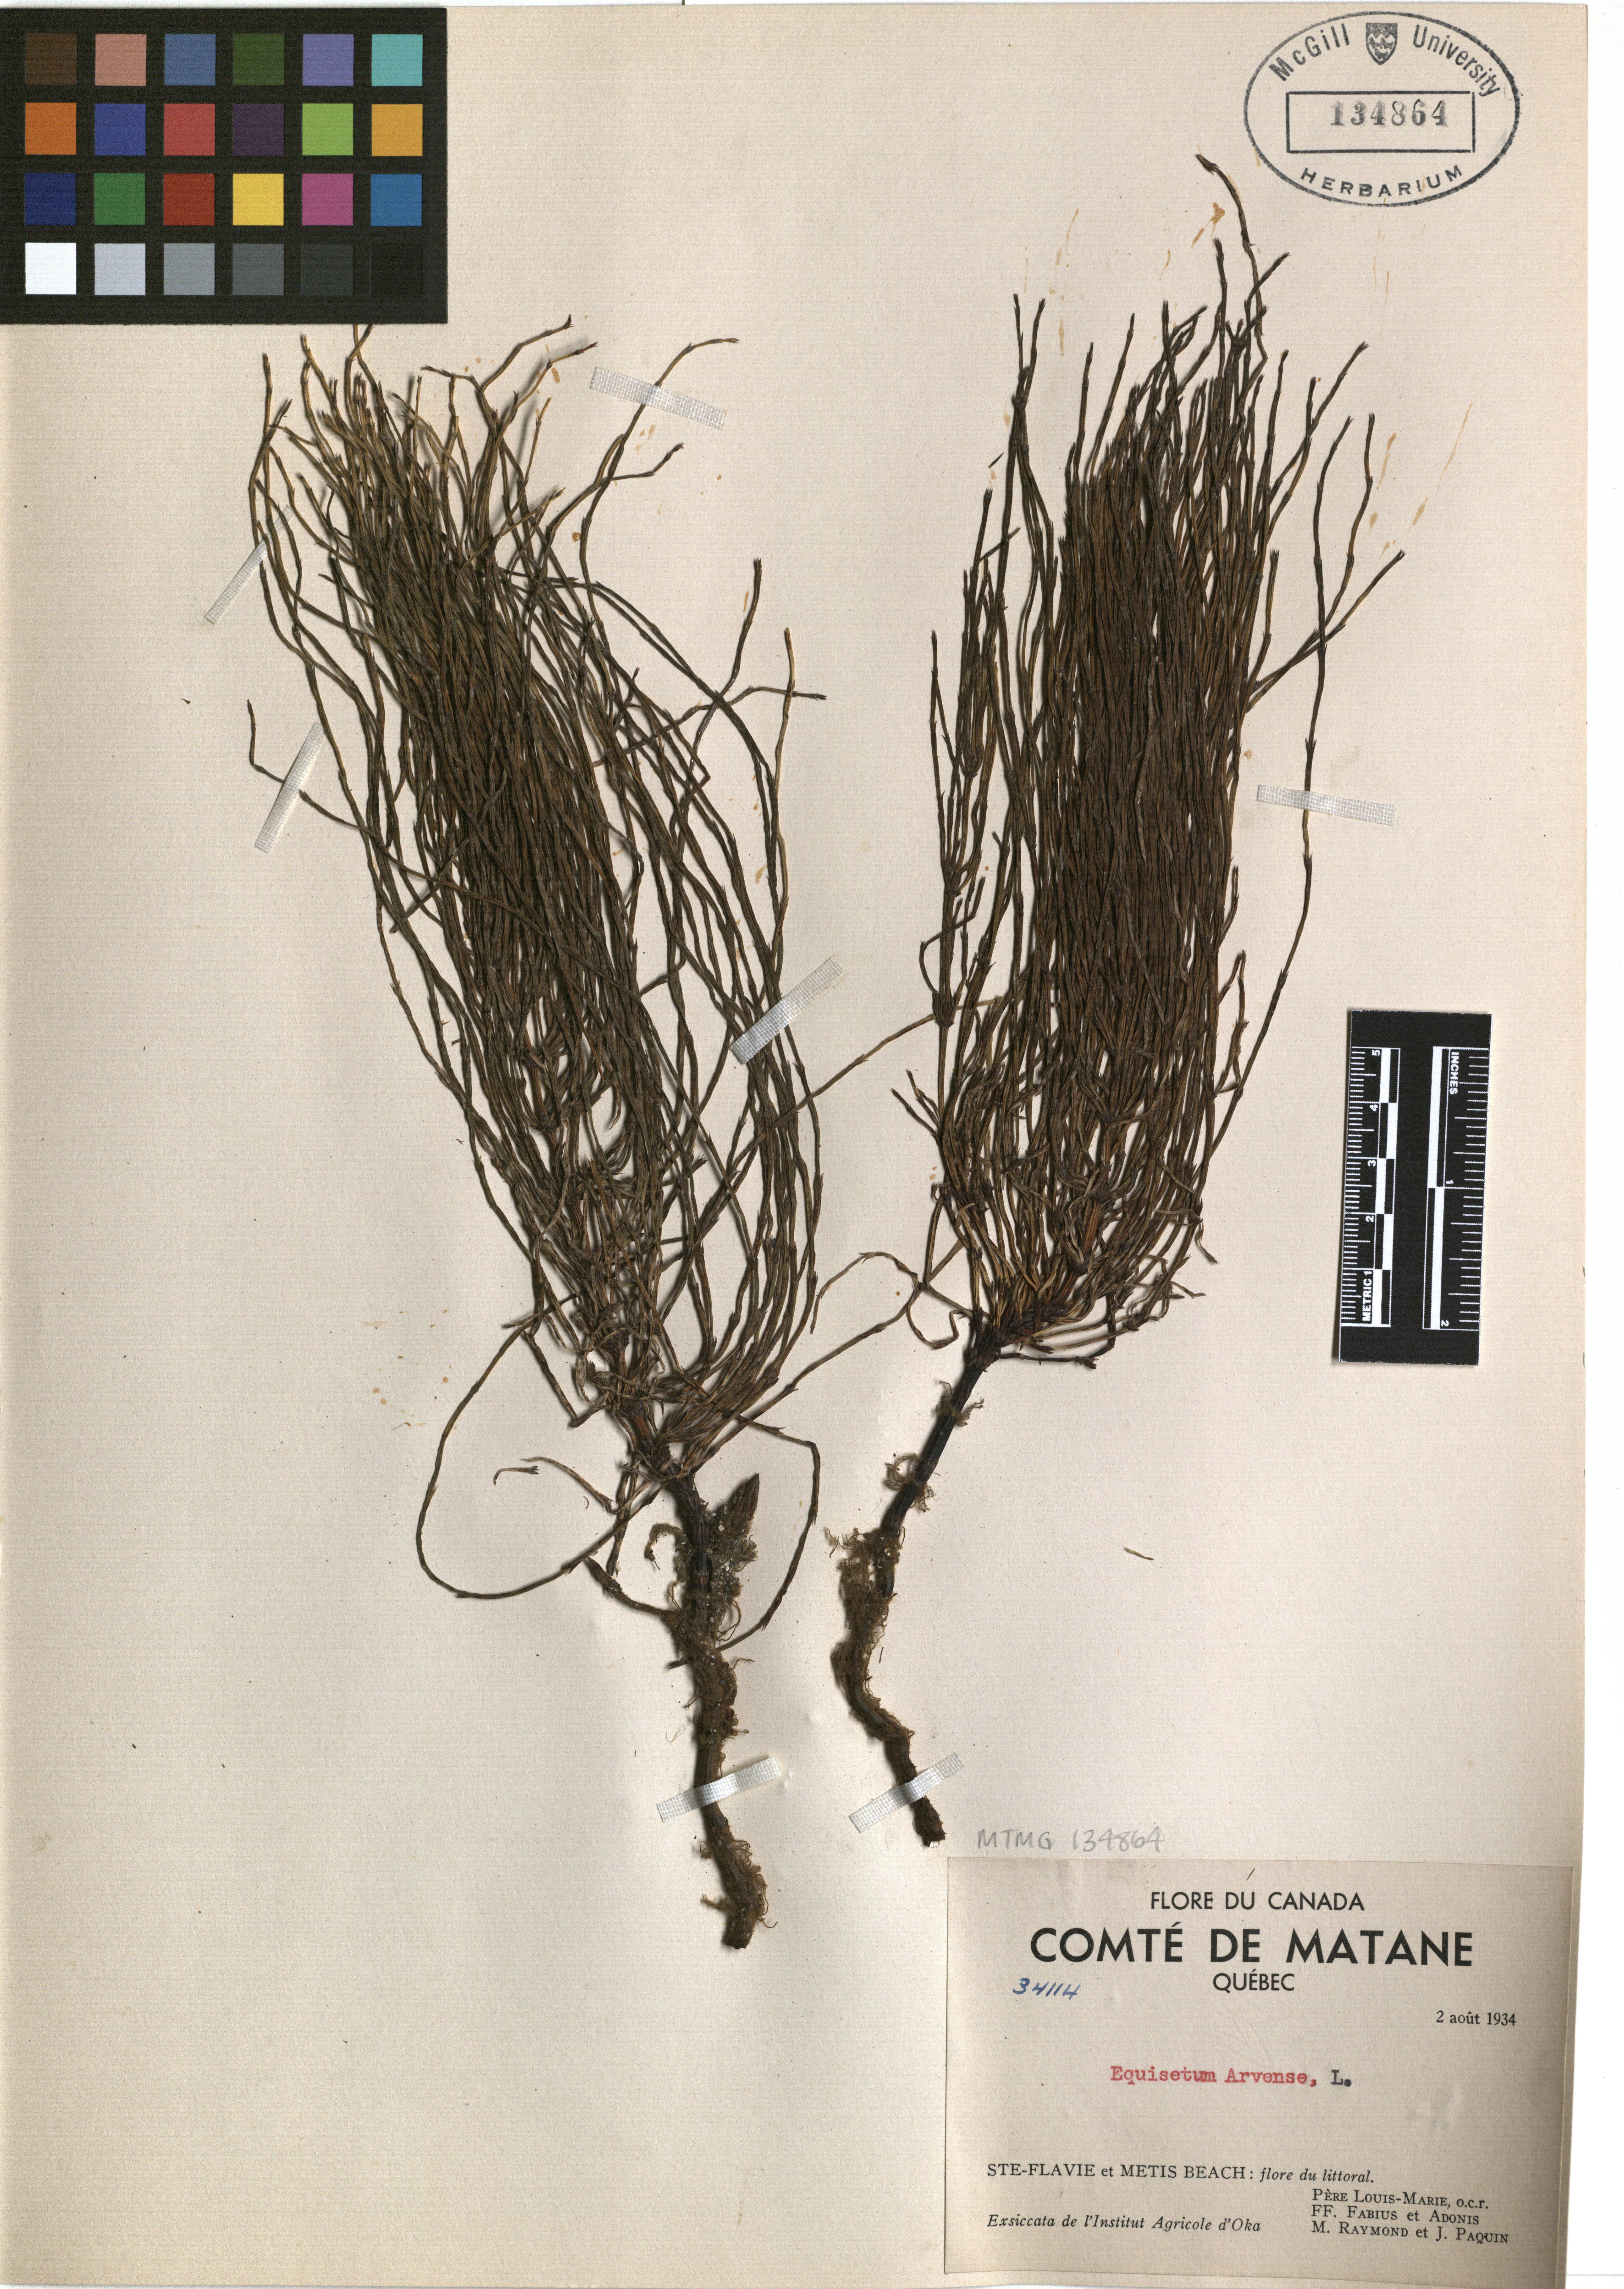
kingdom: Plantae
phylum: Tracheophyta
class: Polypodiopsida
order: Equisetales
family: Equisetaceae
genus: Equisetum
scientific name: Equisetum arvense
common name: Field horsetail
